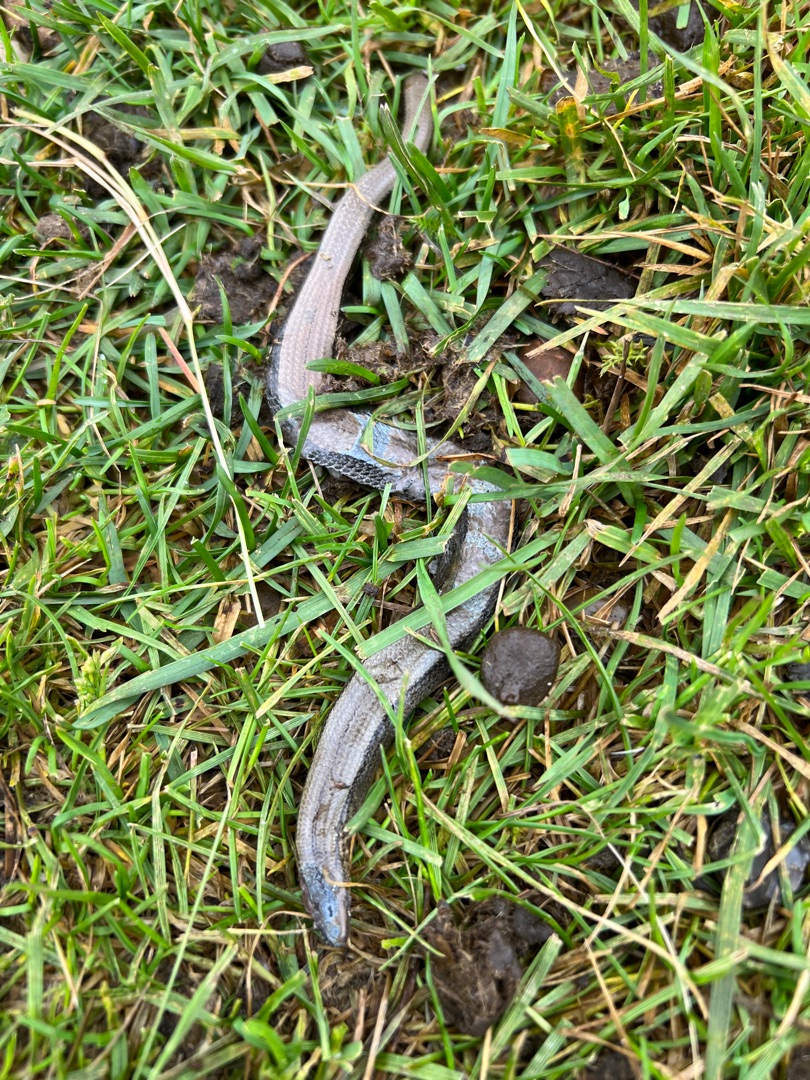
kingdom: Animalia
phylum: Chordata
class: Squamata
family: Anguidae
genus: Anguis
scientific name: Anguis fragilis
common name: Stålorm
